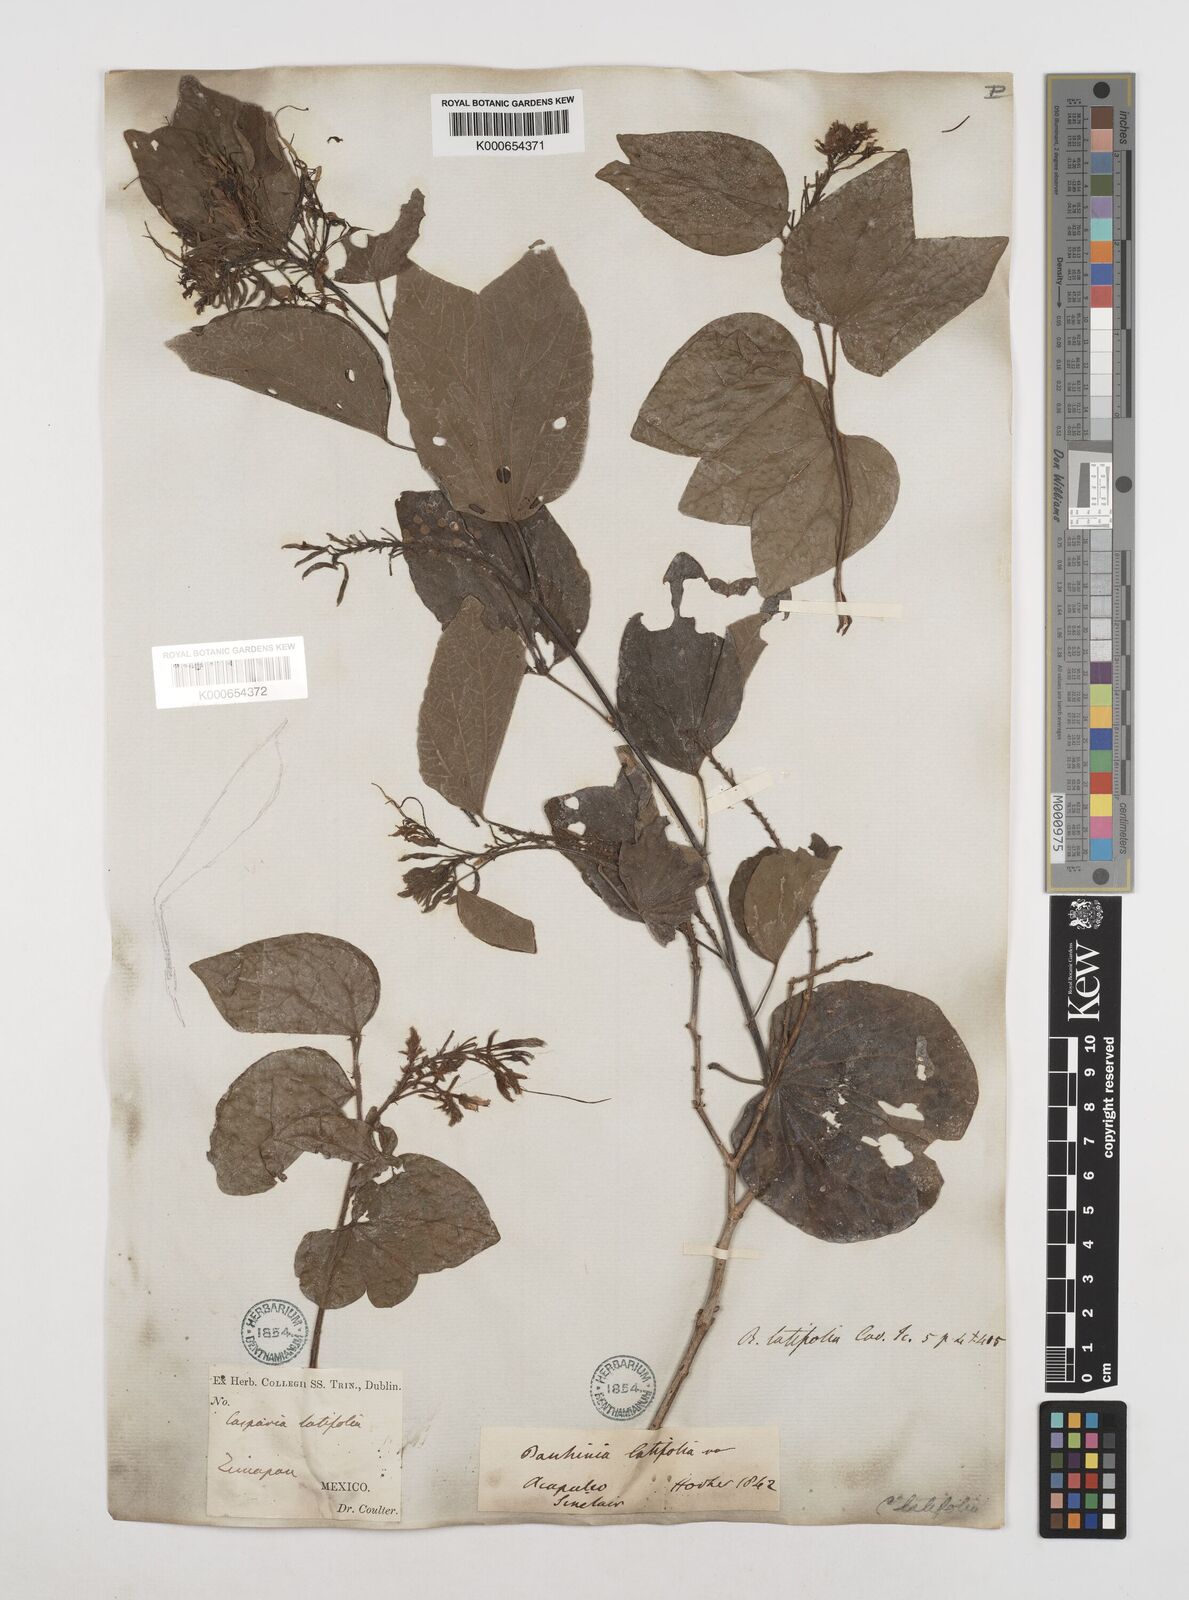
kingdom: Plantae
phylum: Tracheophyta
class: Magnoliopsida
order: Fabales
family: Fabaceae
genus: Bauhinia
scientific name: Bauhinia divaricata
